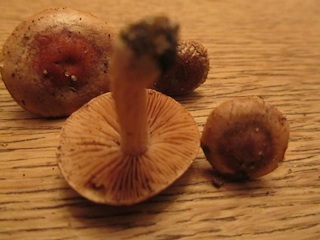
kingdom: Fungi
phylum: Basidiomycota
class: Agaricomycetes
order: Agaricales
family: Hymenogastraceae
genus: Hebeloma
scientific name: Hebeloma theobrominum
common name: rødbrun tåreblad
